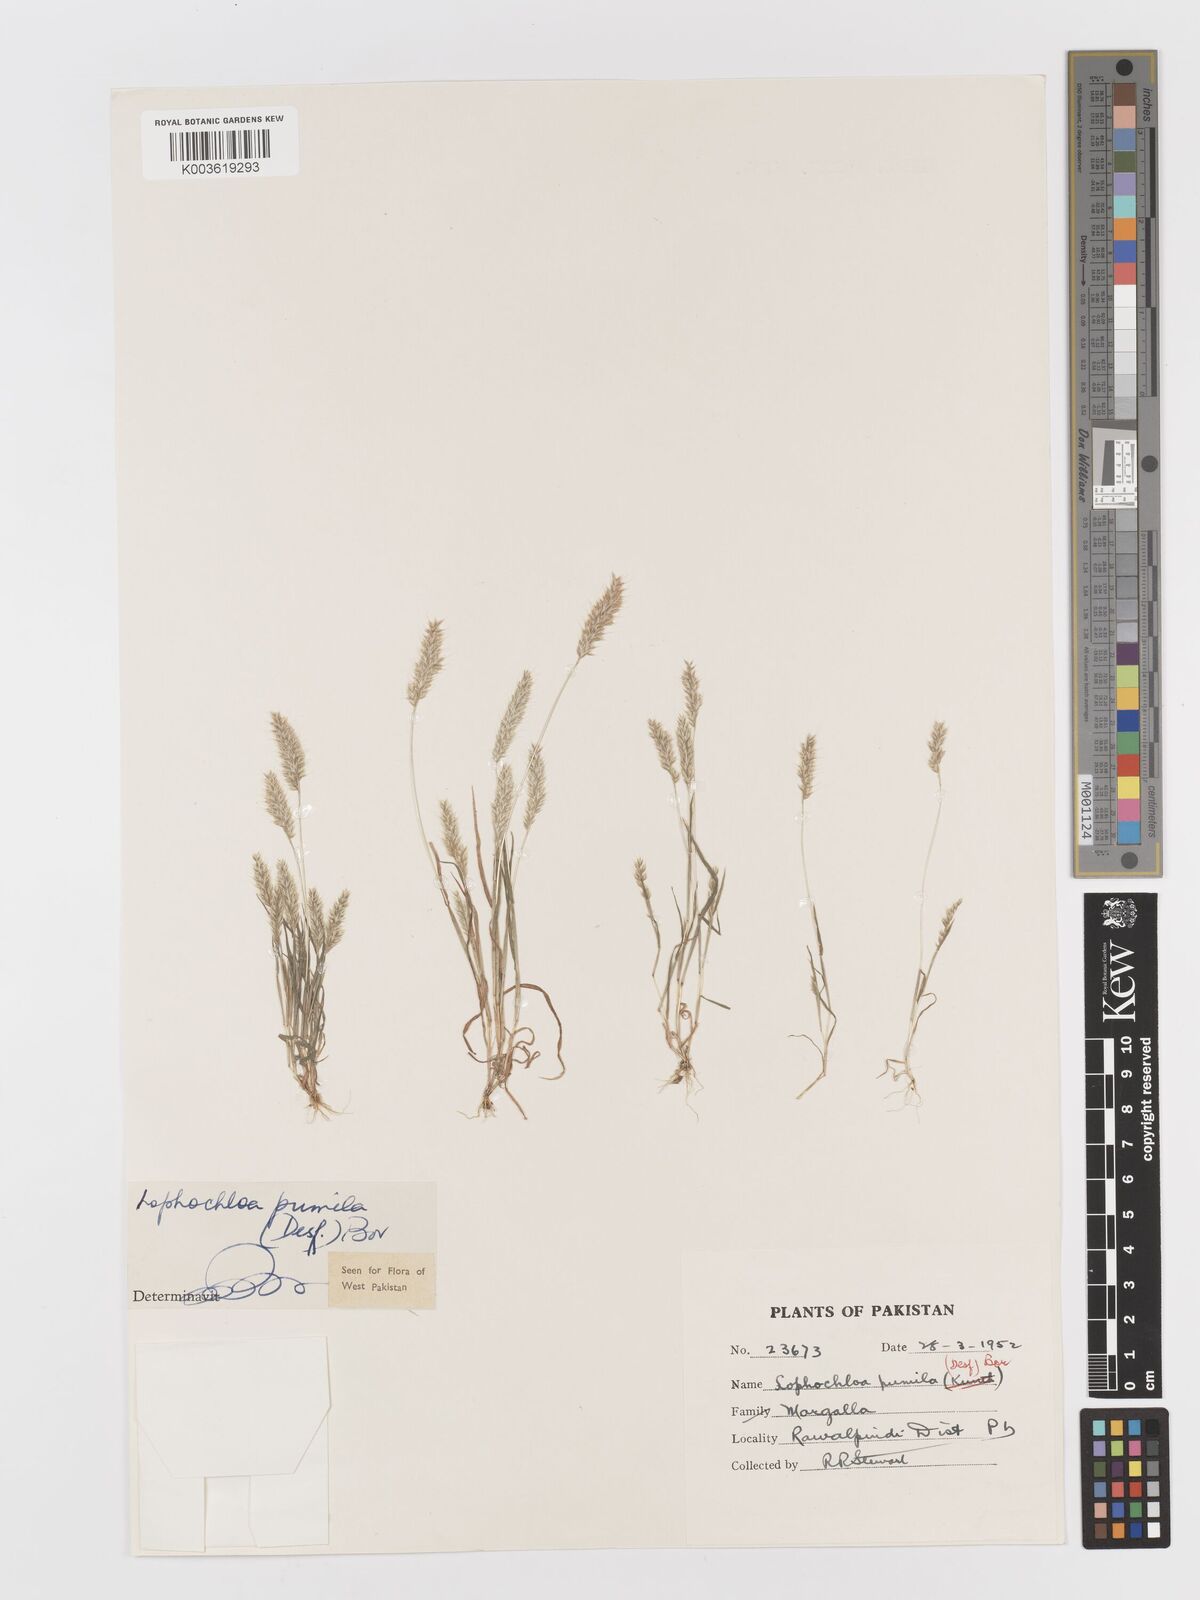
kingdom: Plantae
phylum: Tracheophyta
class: Liliopsida
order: Poales
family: Poaceae
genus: Rostraria
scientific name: Rostraria pumila
